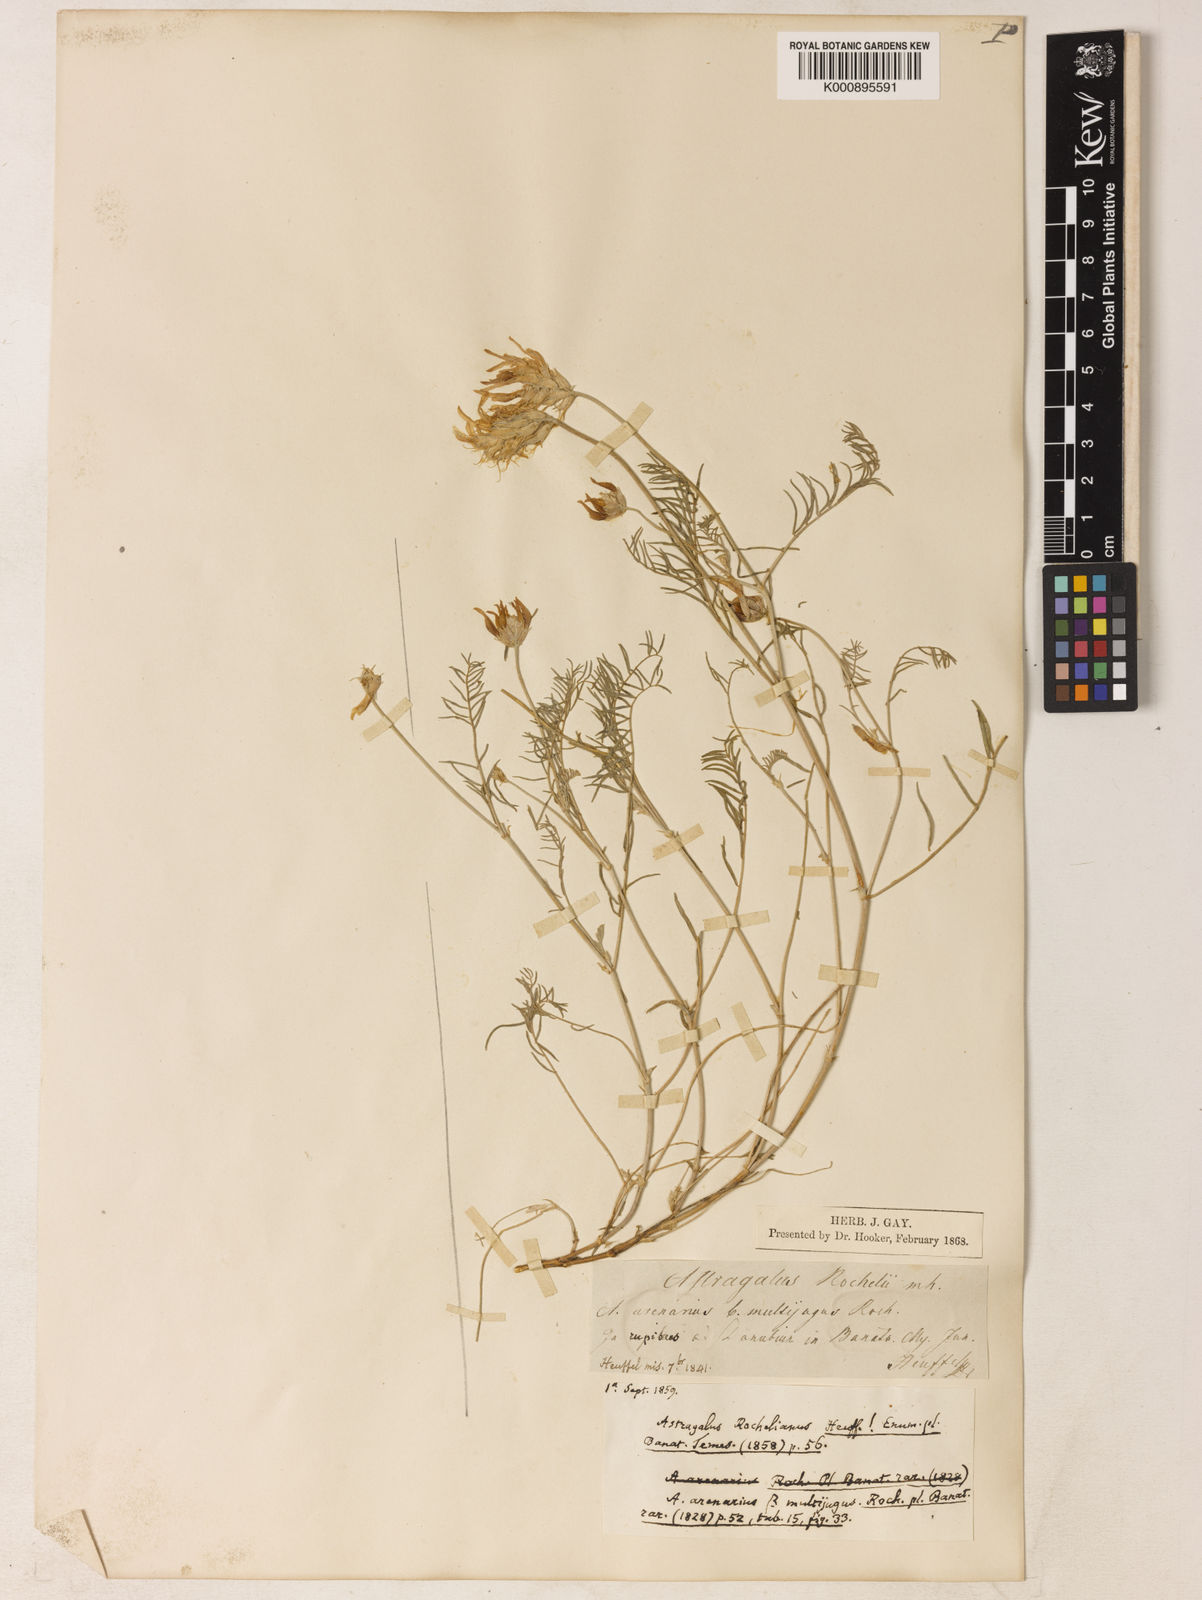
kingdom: Plantae
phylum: Tracheophyta
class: Magnoliopsida
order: Fabales
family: Fabaceae
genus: Astragalus
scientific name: Astragalus onobrychis
